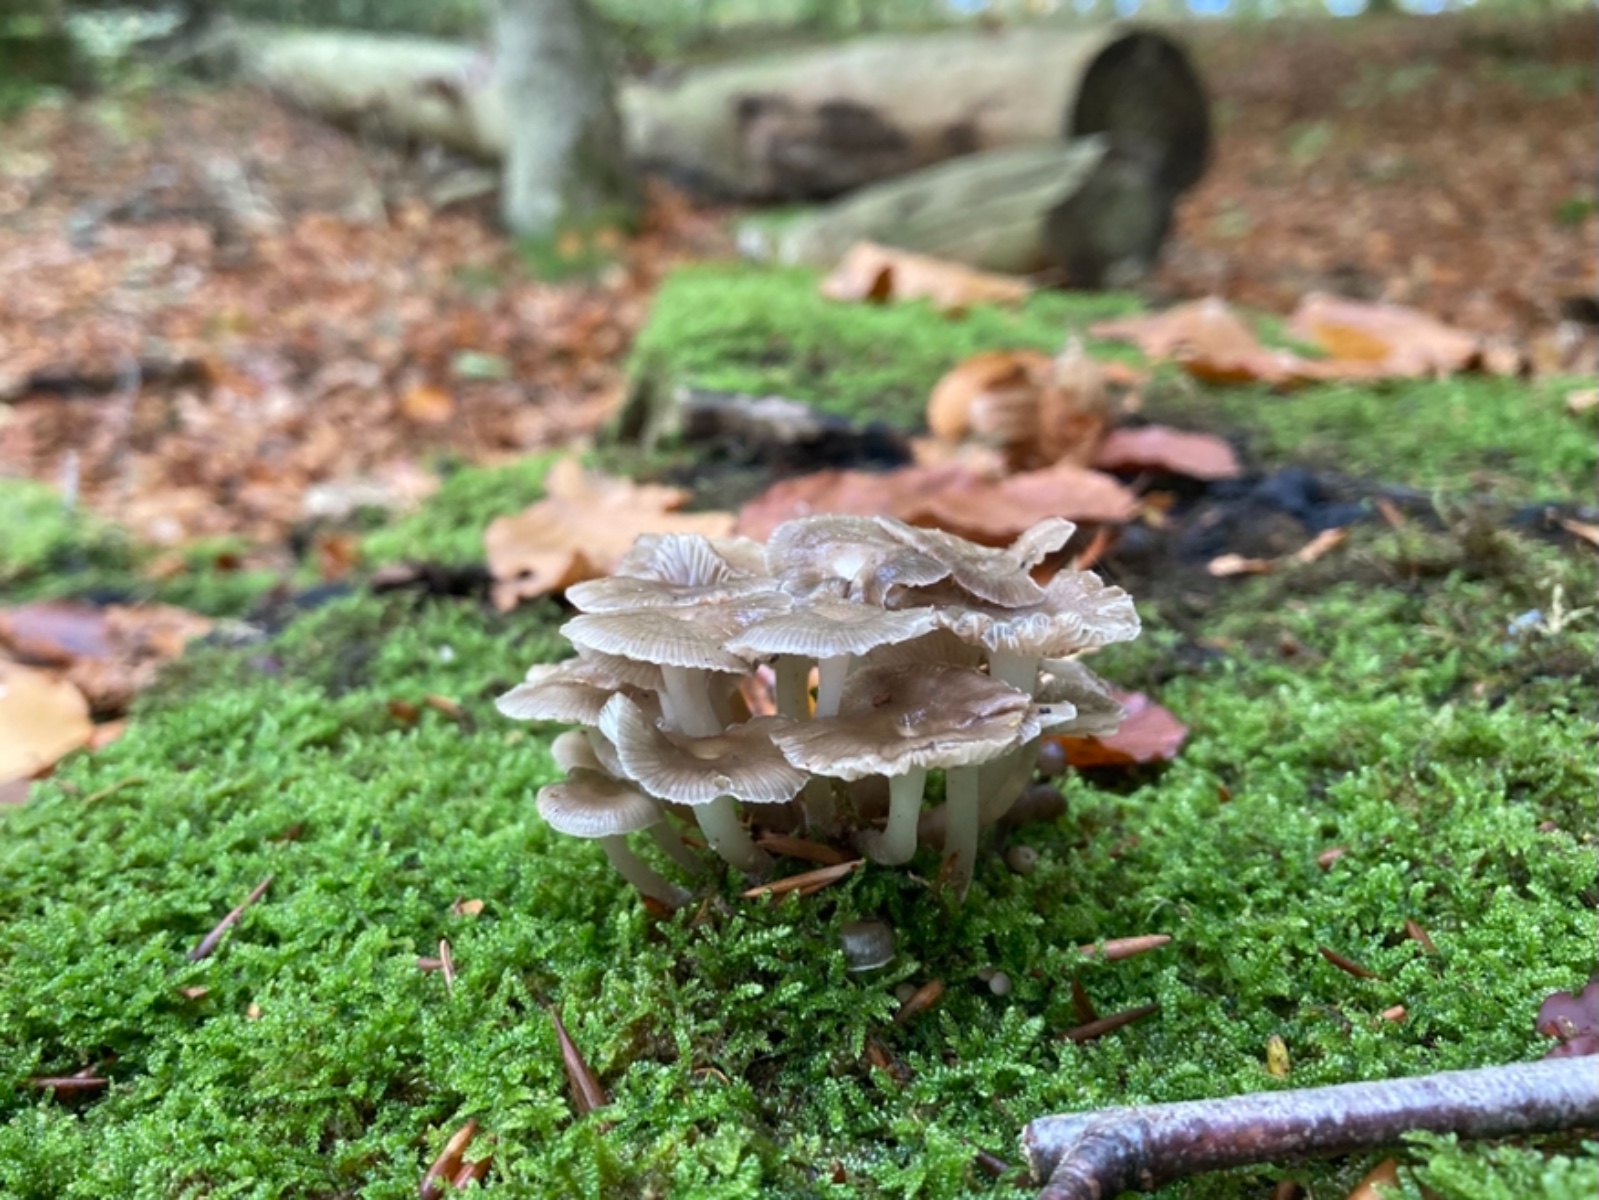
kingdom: Fungi
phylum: Basidiomycota
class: Agaricomycetes
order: Agaricales
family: Mycenaceae
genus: Mycena
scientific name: Mycena tintinnabulum
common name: vinter-huesvamp
